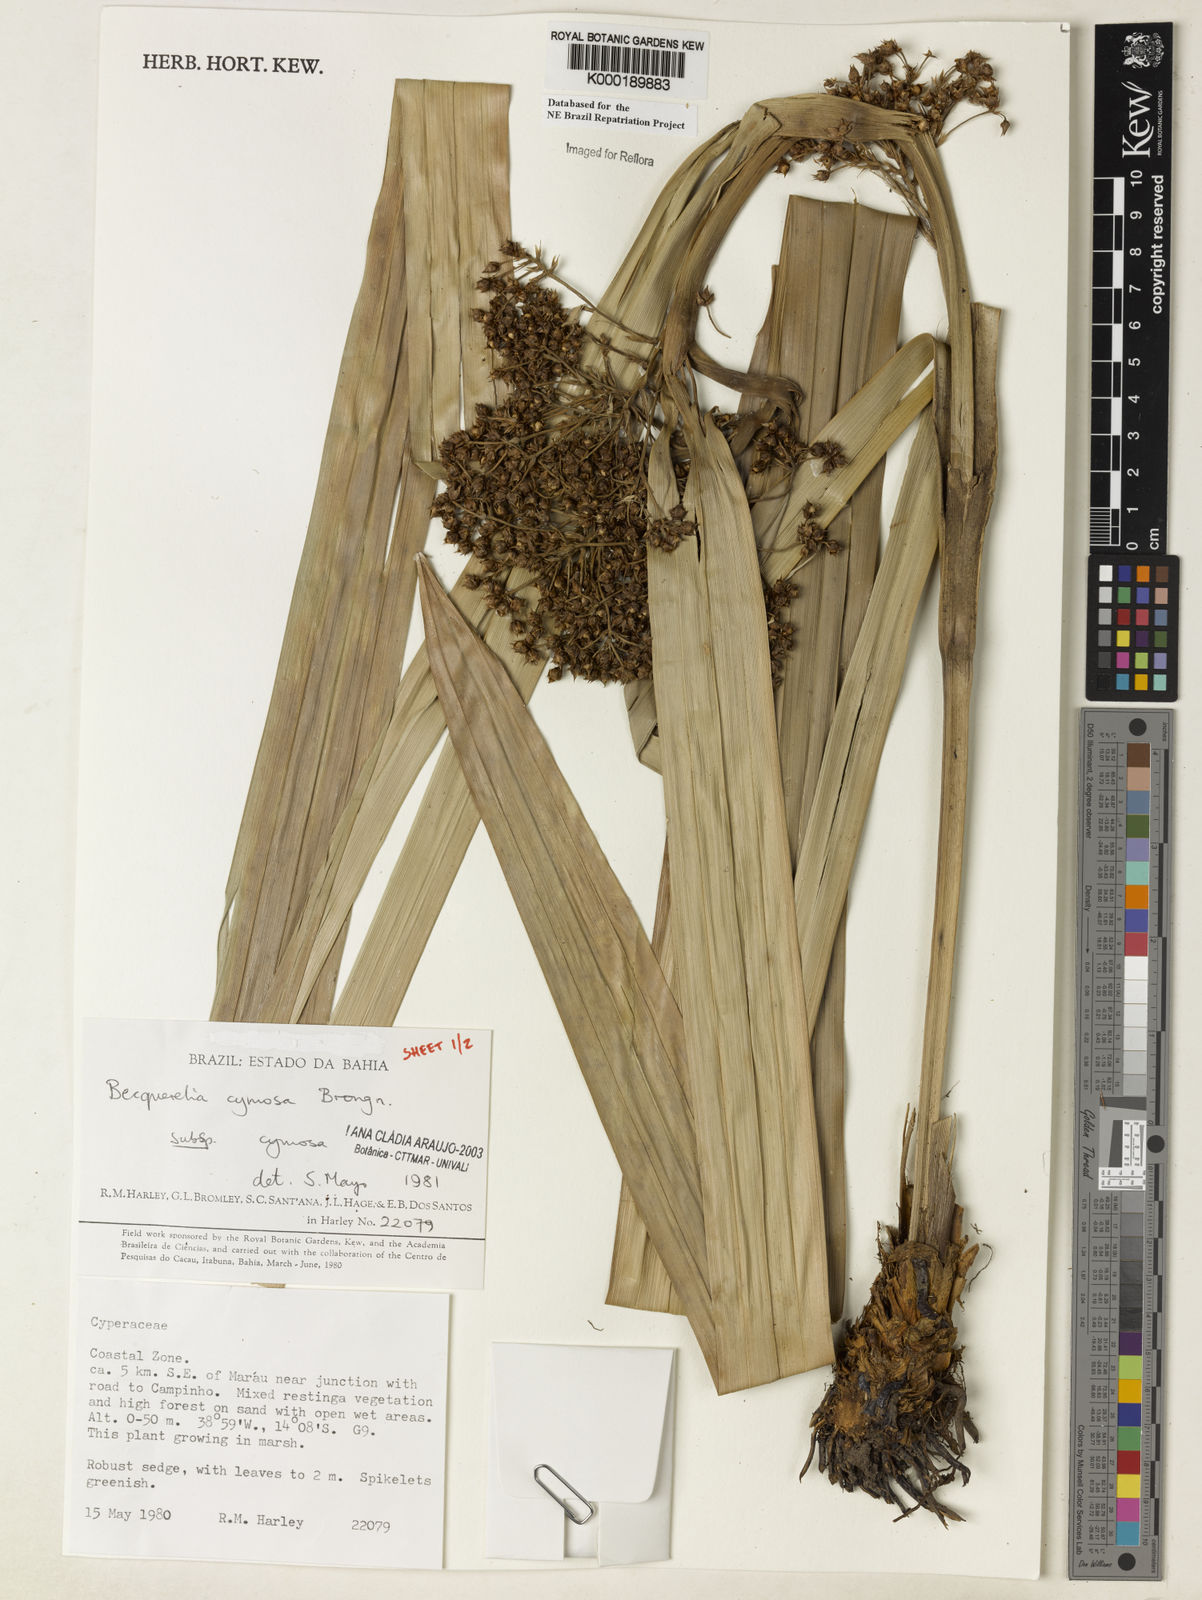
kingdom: Plantae
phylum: Tracheophyta
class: Liliopsida
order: Poales
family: Cyperaceae
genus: Becquerelia
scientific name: Becquerelia cymosa
